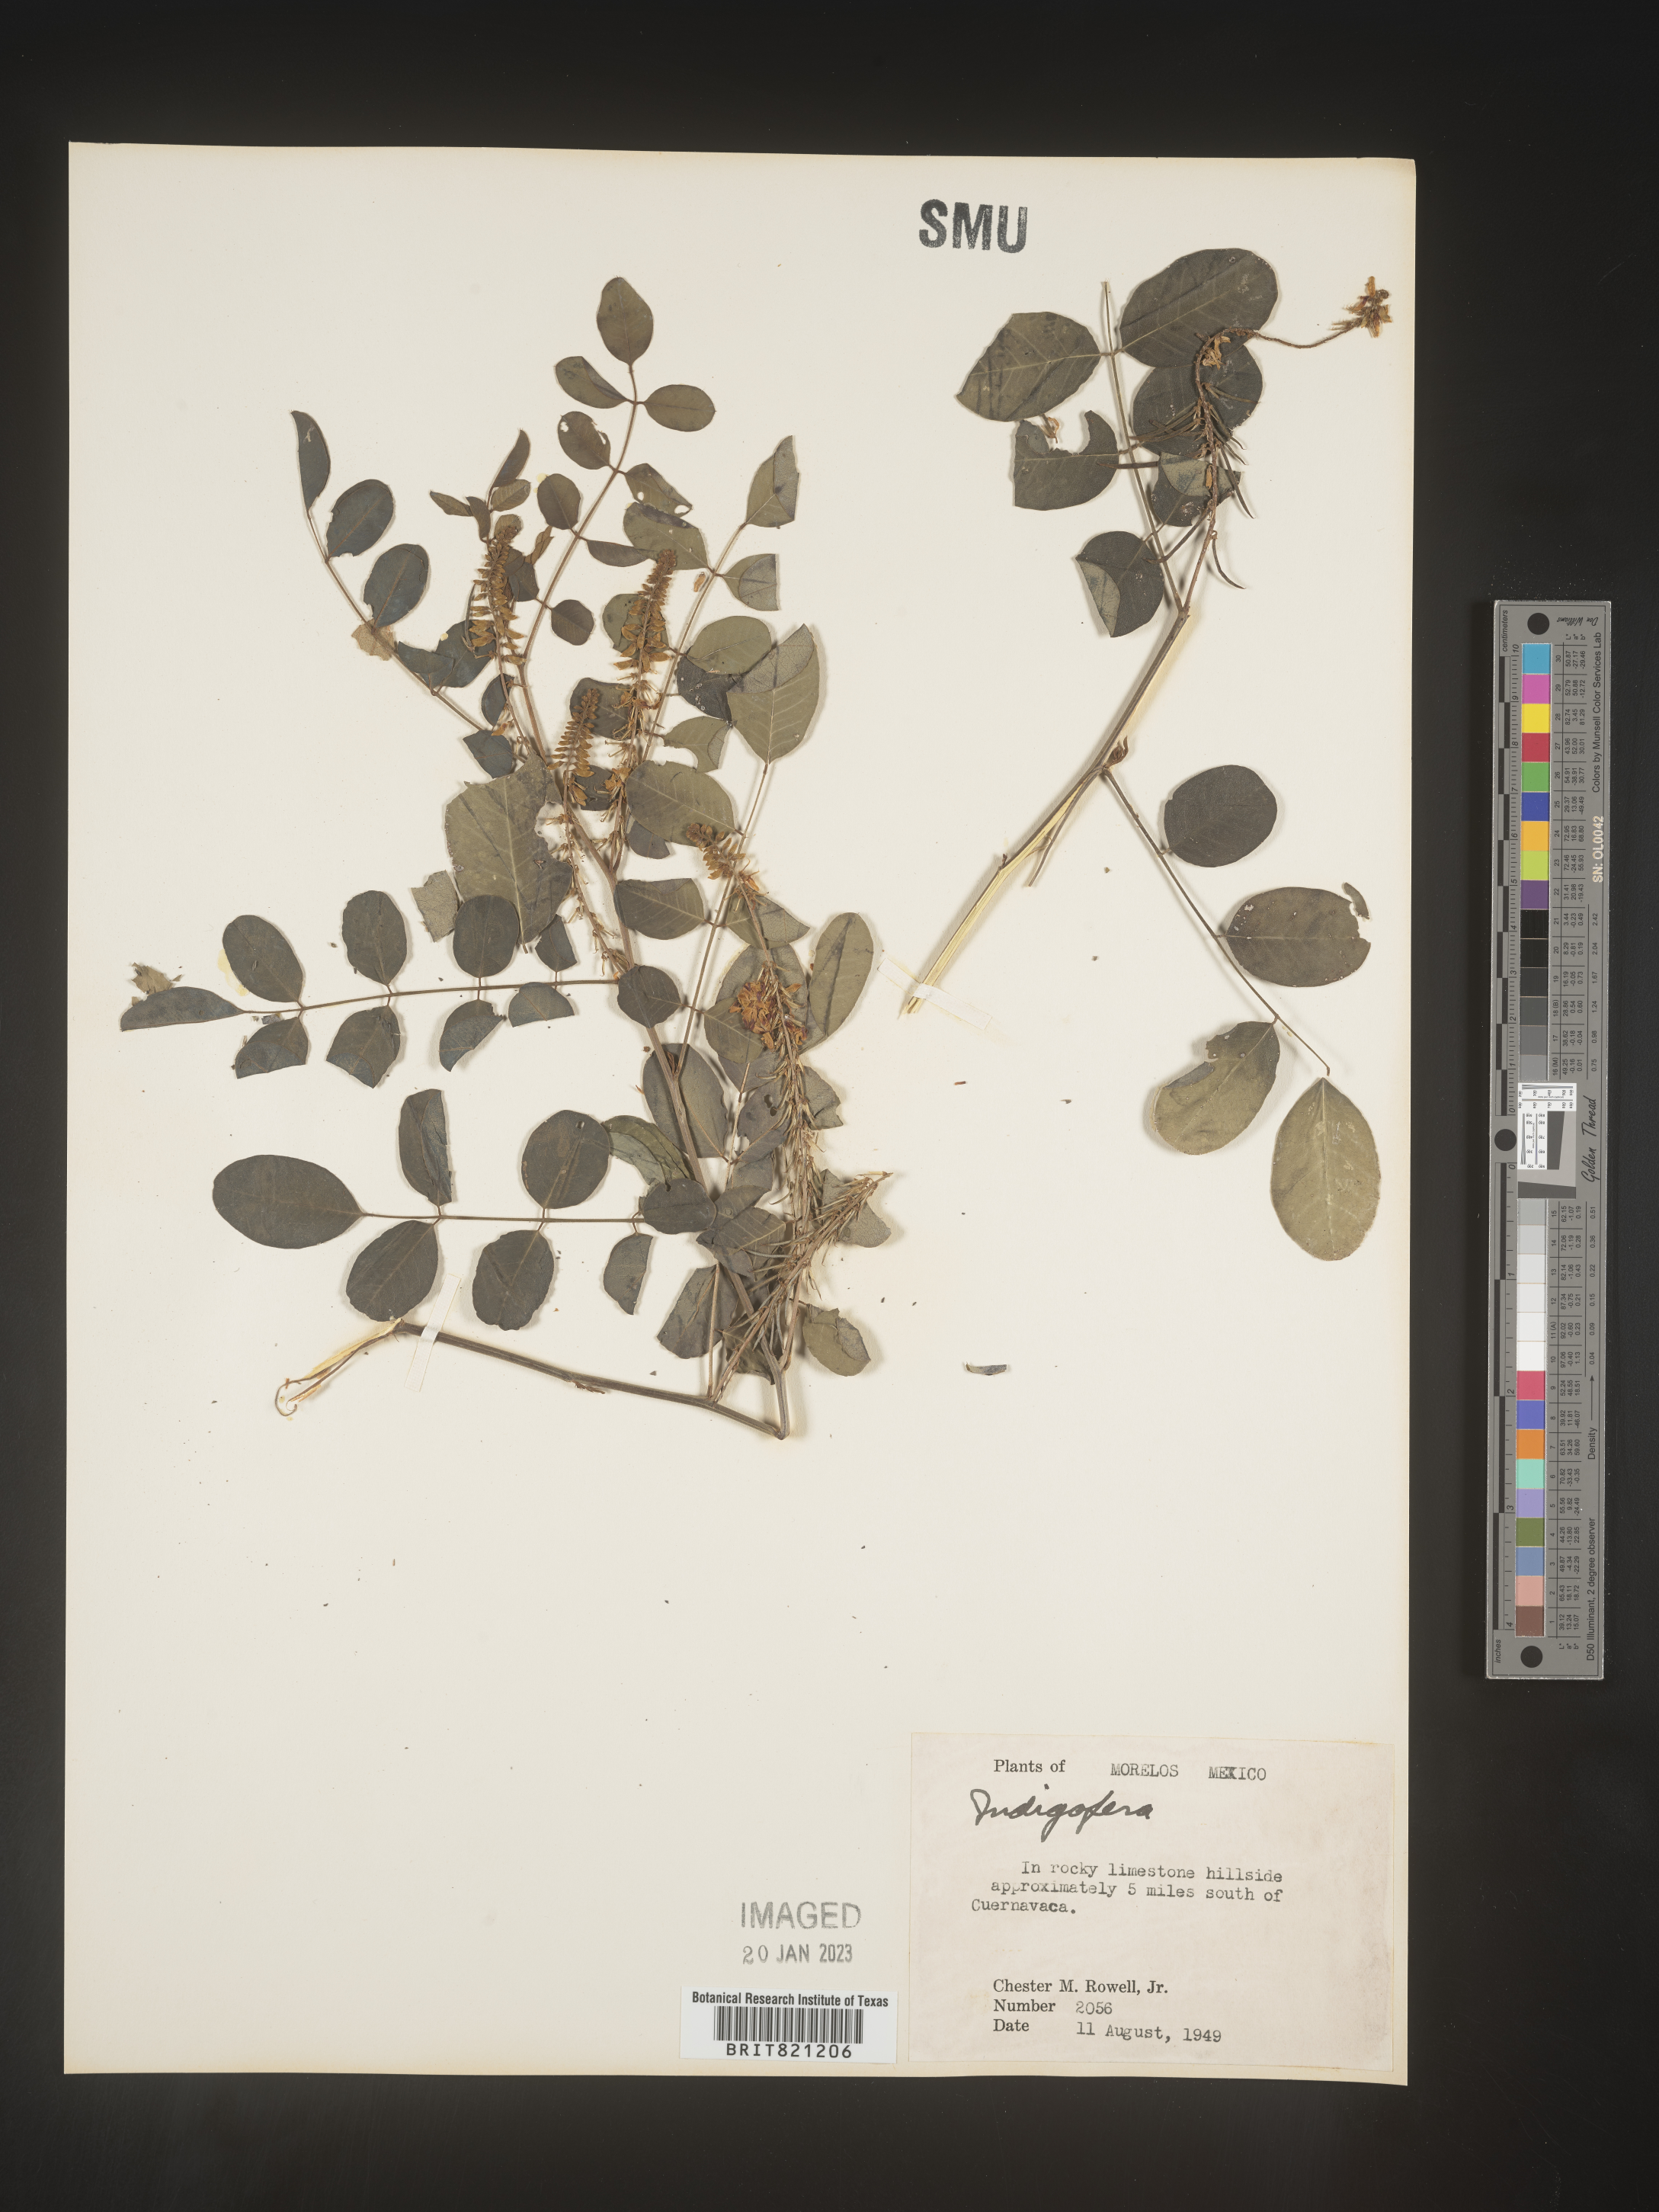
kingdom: Plantae
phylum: Tracheophyta
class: Magnoliopsida
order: Fabales
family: Fabaceae
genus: Indigofera
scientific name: Indigofera
